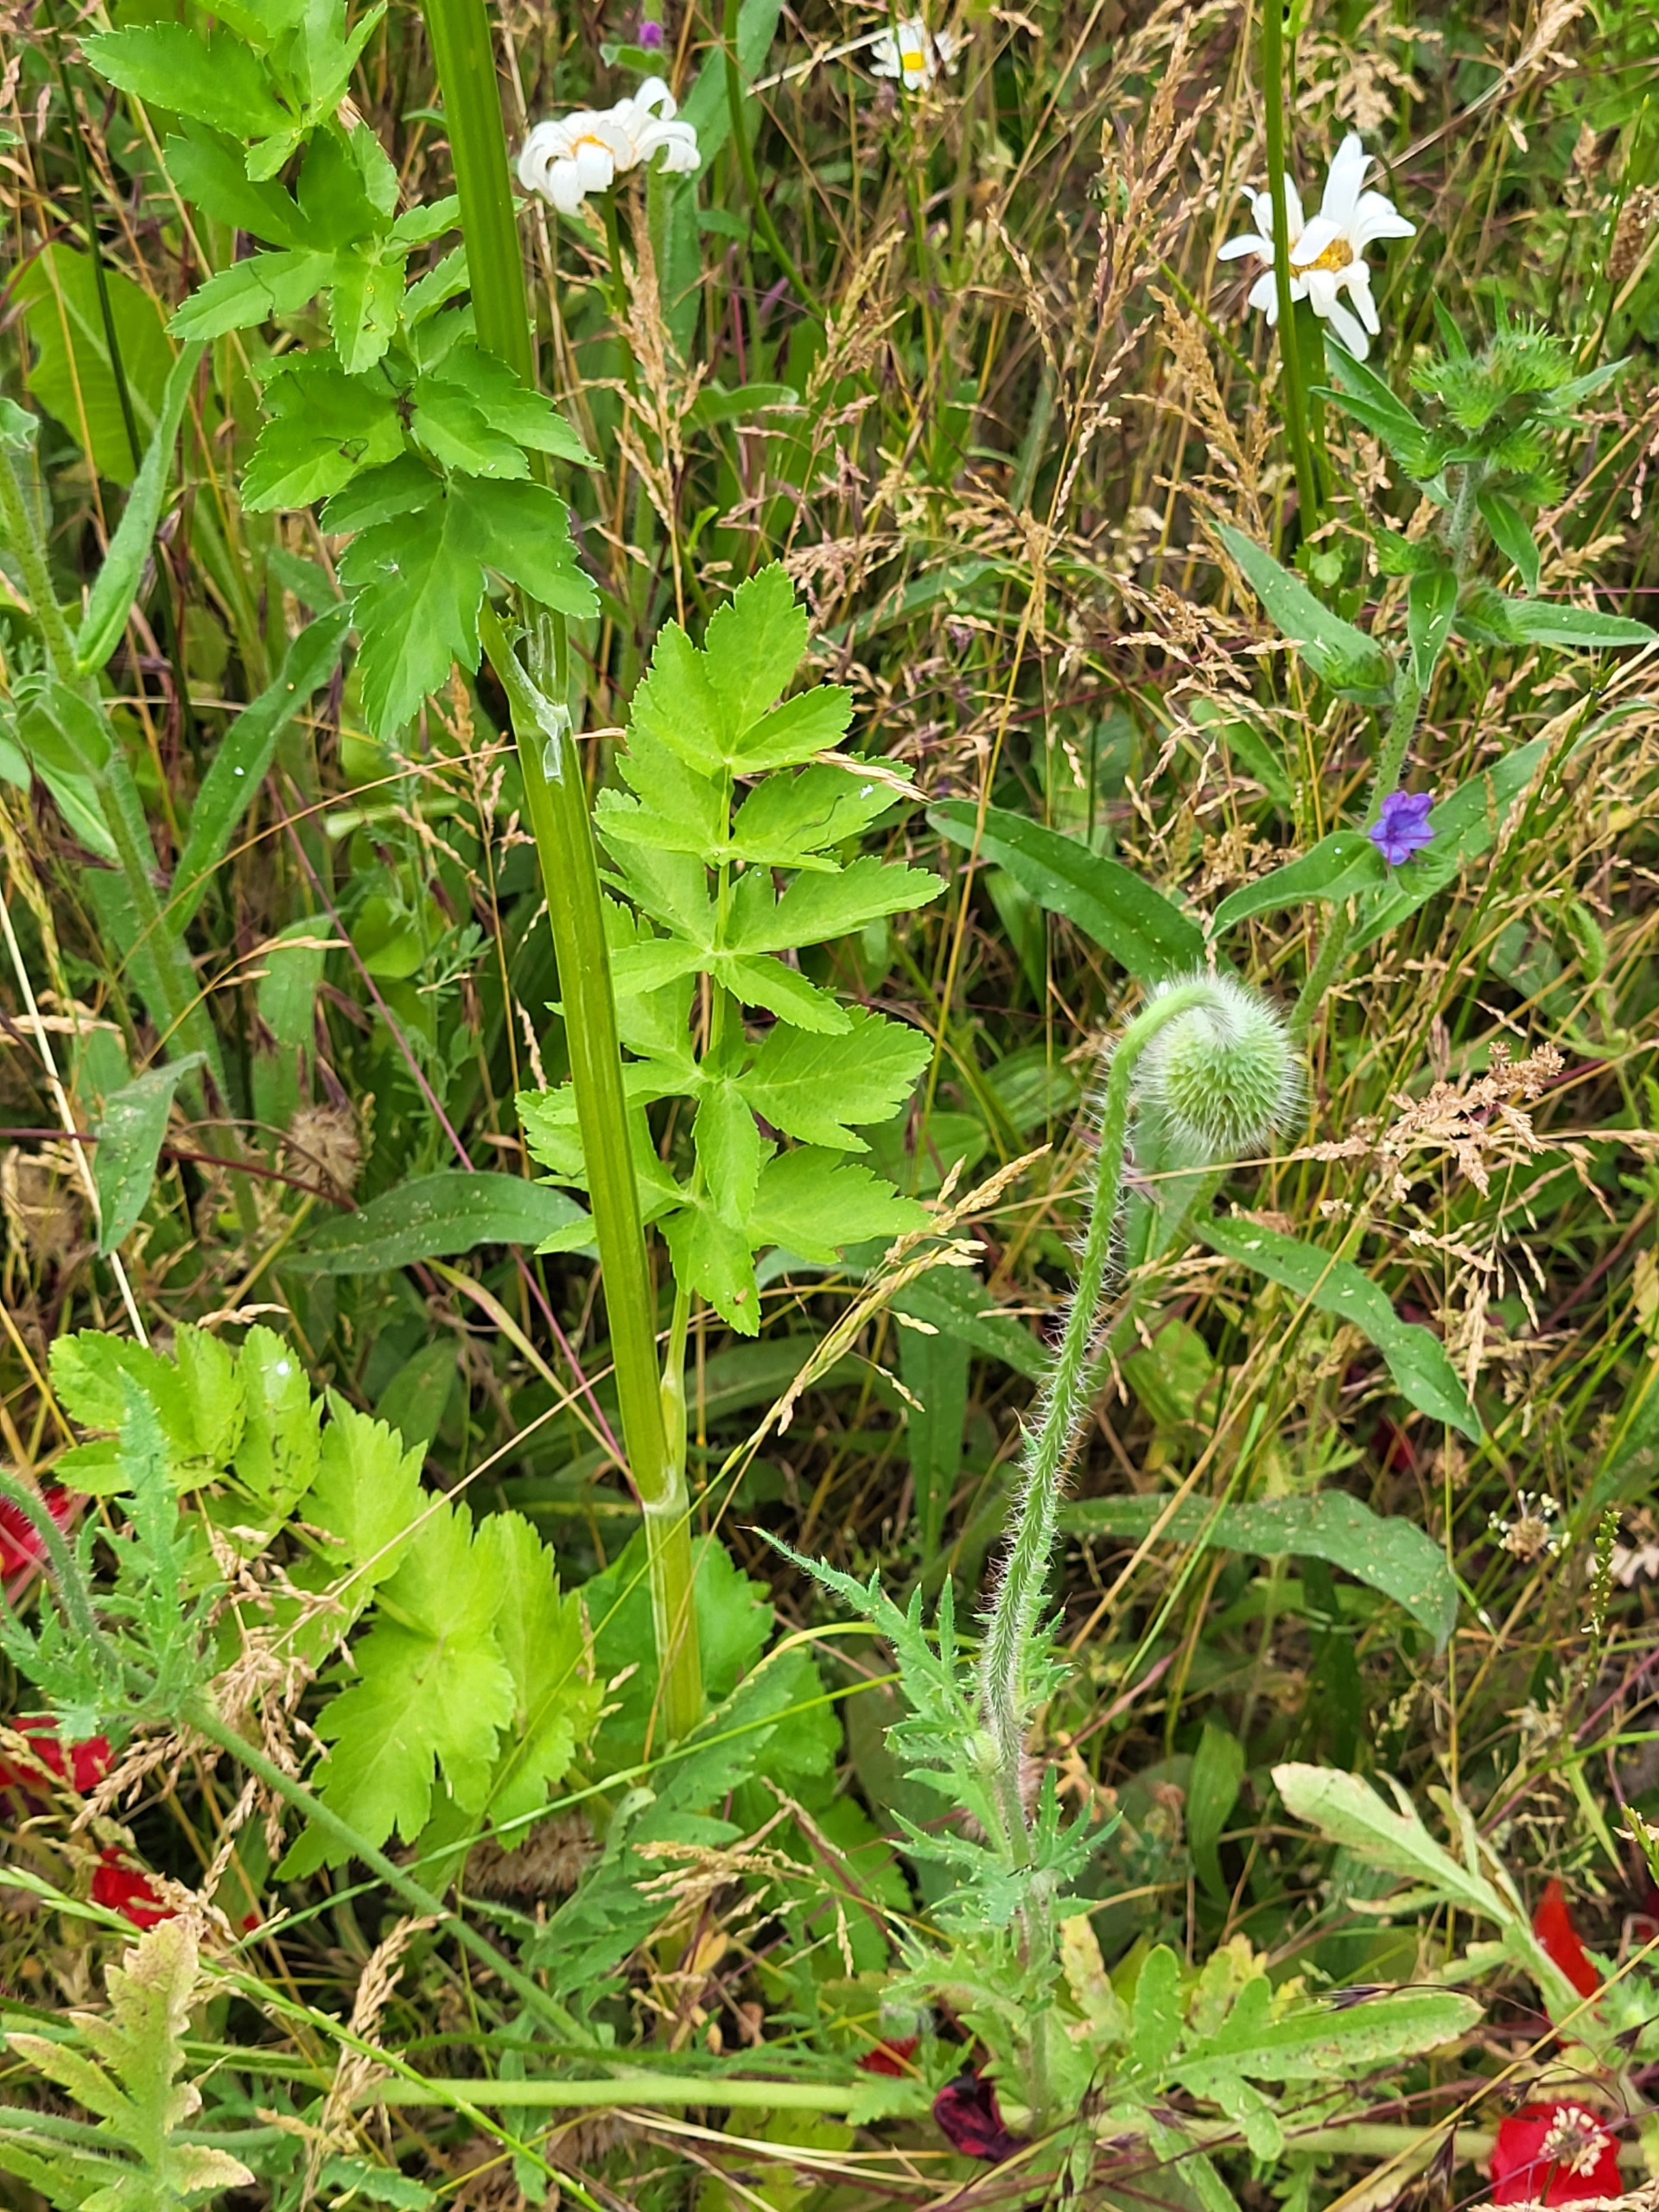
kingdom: Plantae
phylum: Tracheophyta
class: Magnoliopsida
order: Apiales
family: Apiaceae
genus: Pastinaca
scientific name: Pastinaca sativa
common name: Pastinak
